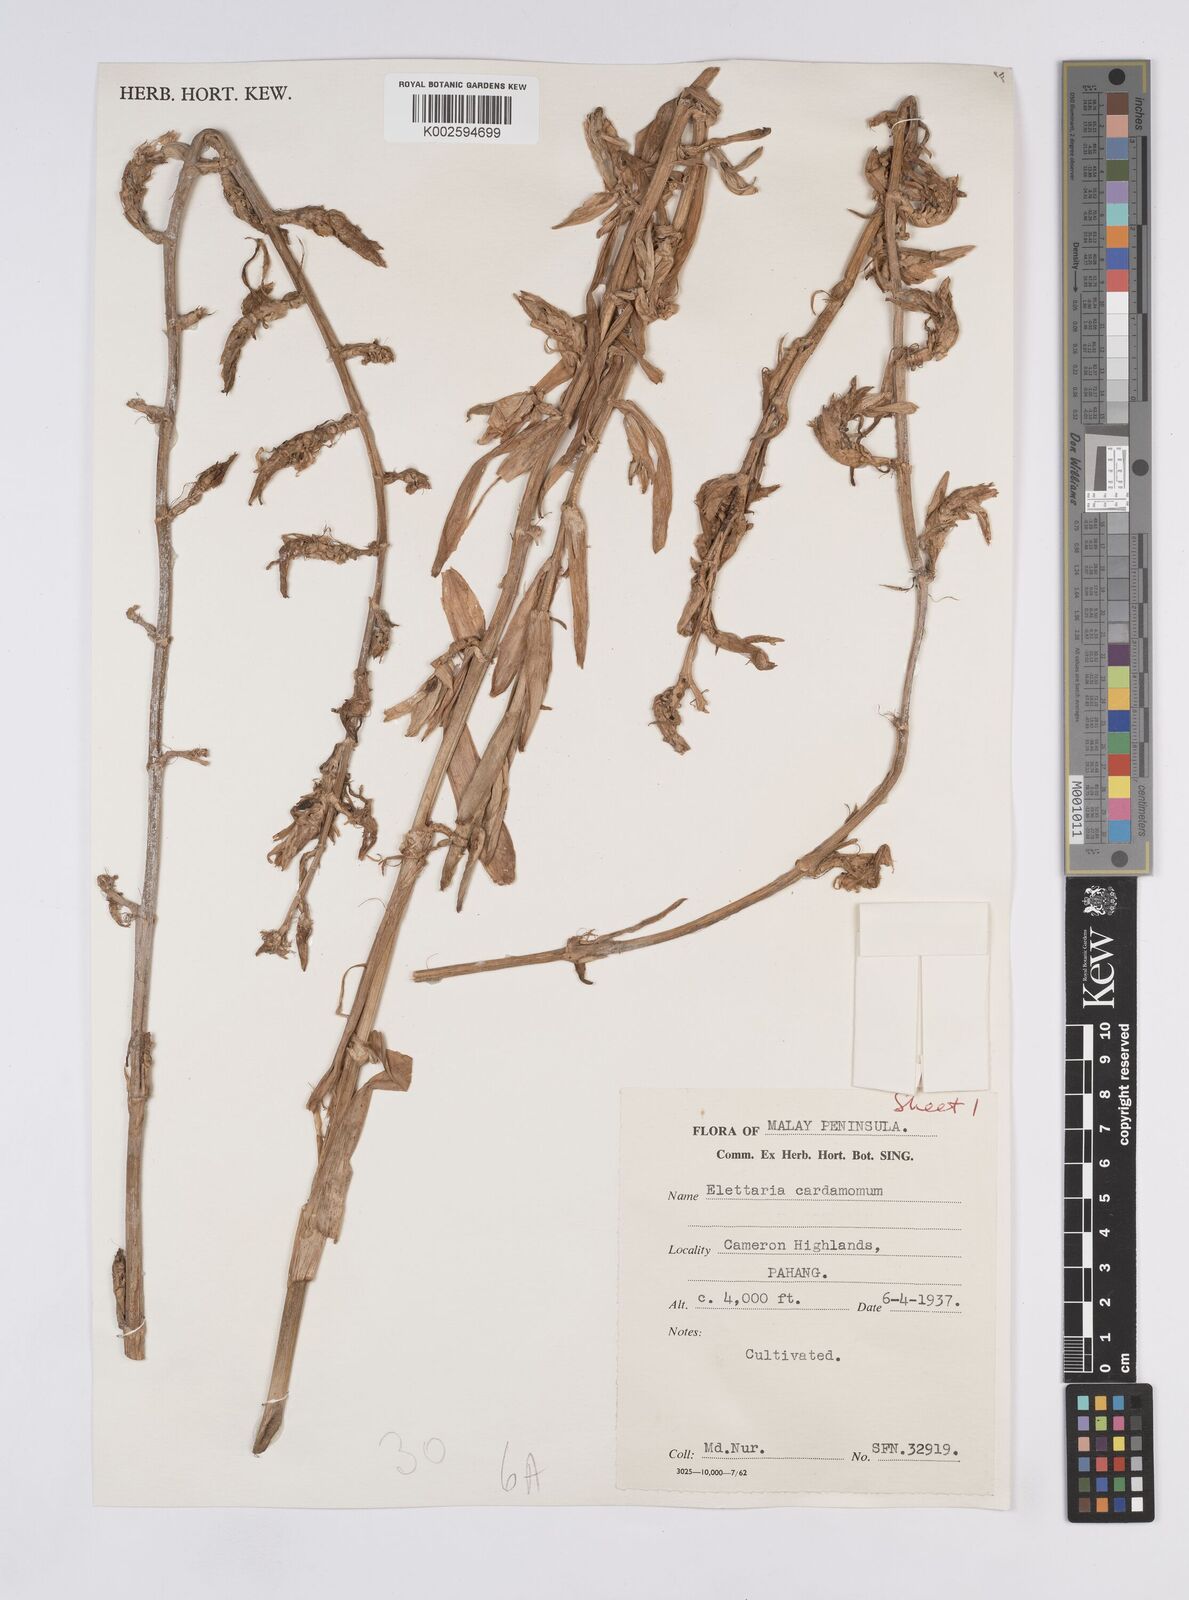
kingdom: Plantae
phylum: Tracheophyta
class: Liliopsida
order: Zingiberales
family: Zingiberaceae
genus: Elettaria
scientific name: Elettaria cardamomum
